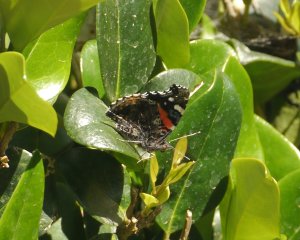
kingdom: Animalia
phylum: Arthropoda
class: Insecta
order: Lepidoptera
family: Nymphalidae
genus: Vanessa
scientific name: Vanessa atalanta
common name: Red Admiral
